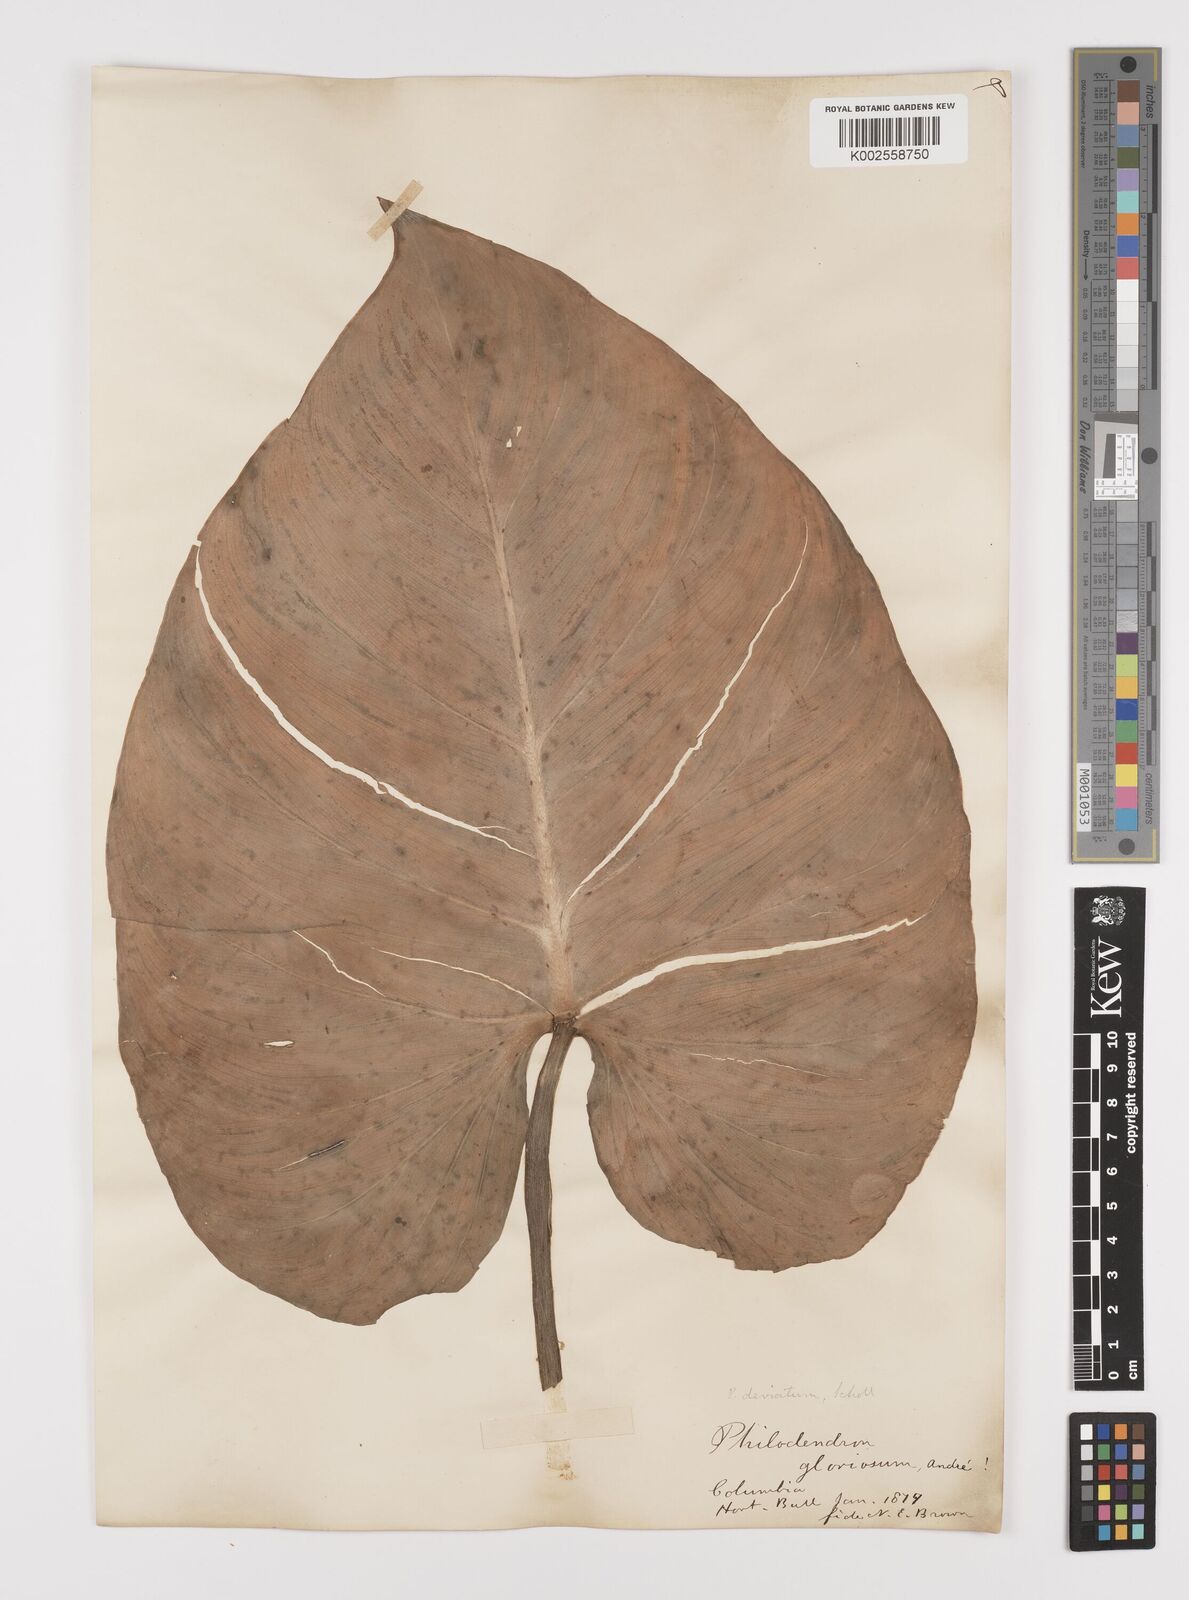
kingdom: Plantae
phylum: Tracheophyta
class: Liliopsida
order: Alismatales
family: Araceae
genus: Philodendron
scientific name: Philodendron jacquinii
